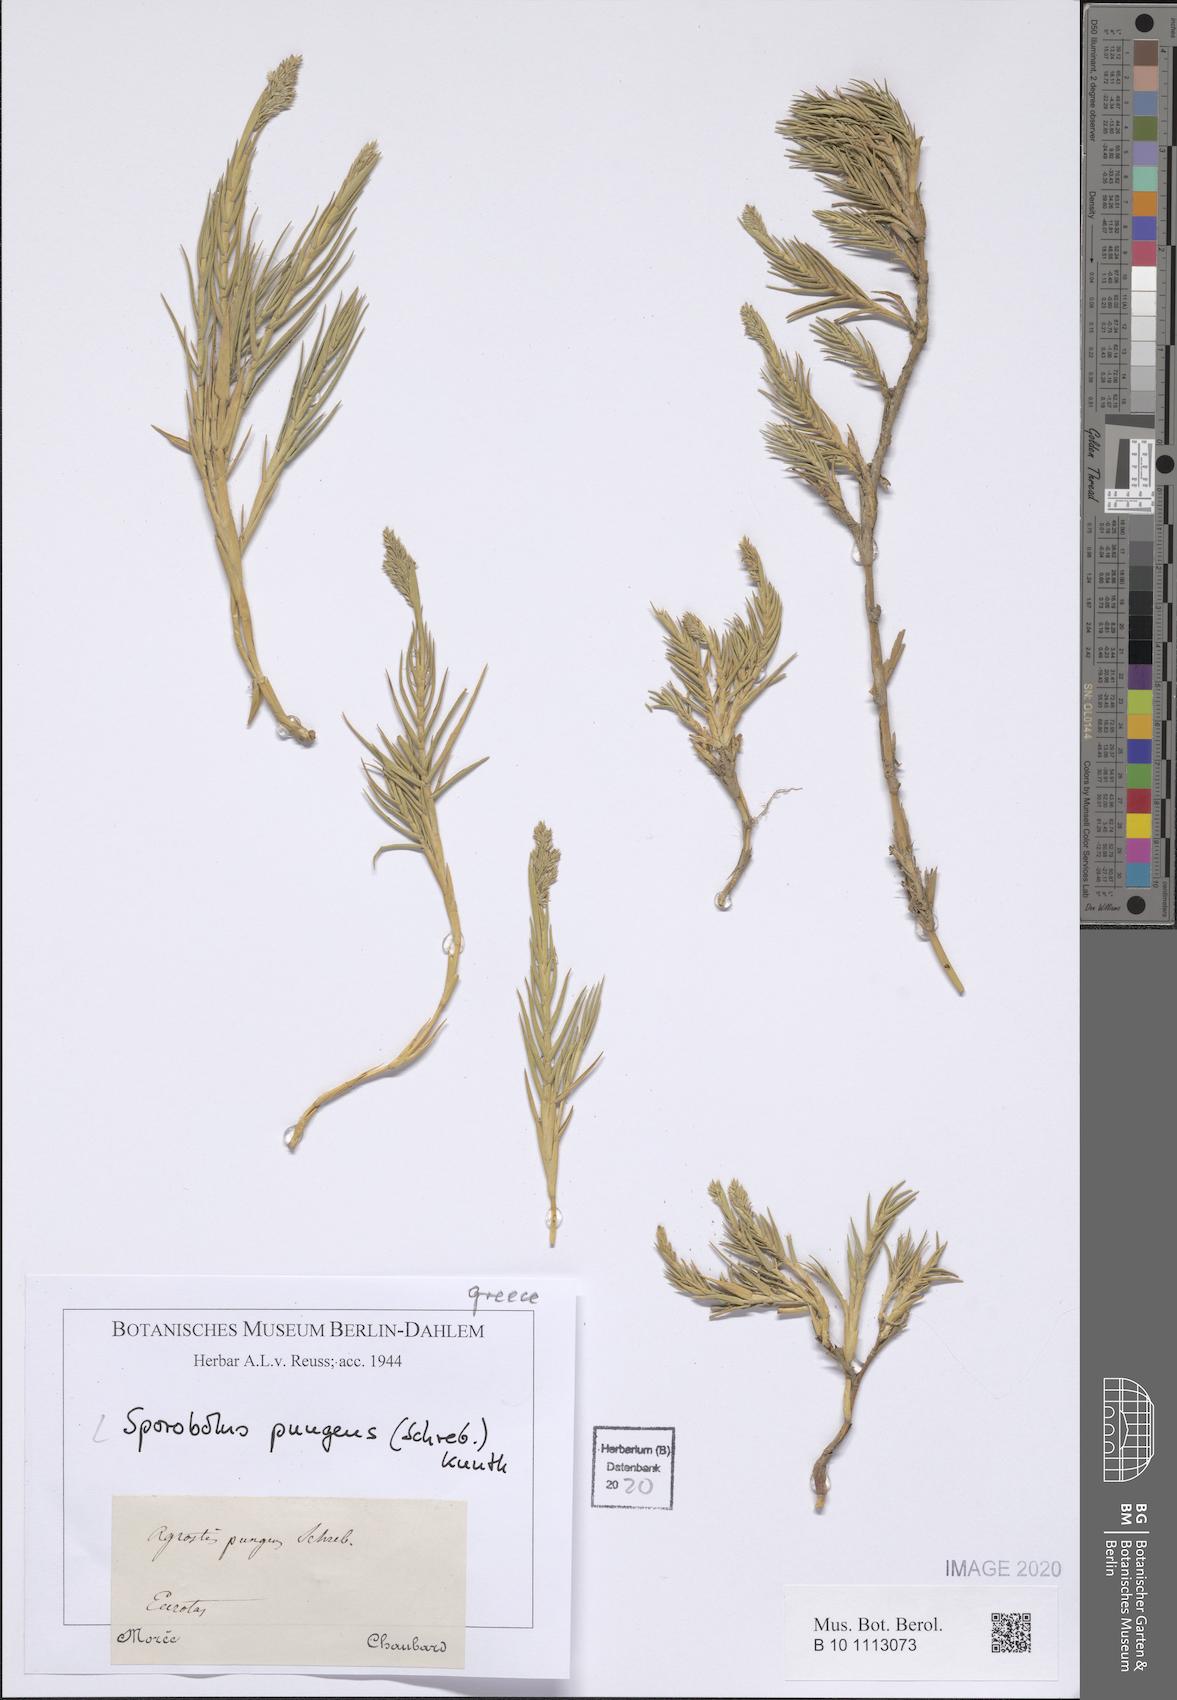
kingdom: Plantae
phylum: Tracheophyta
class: Liliopsida
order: Poales
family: Poaceae
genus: Sporobolus
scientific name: Sporobolus pungens
